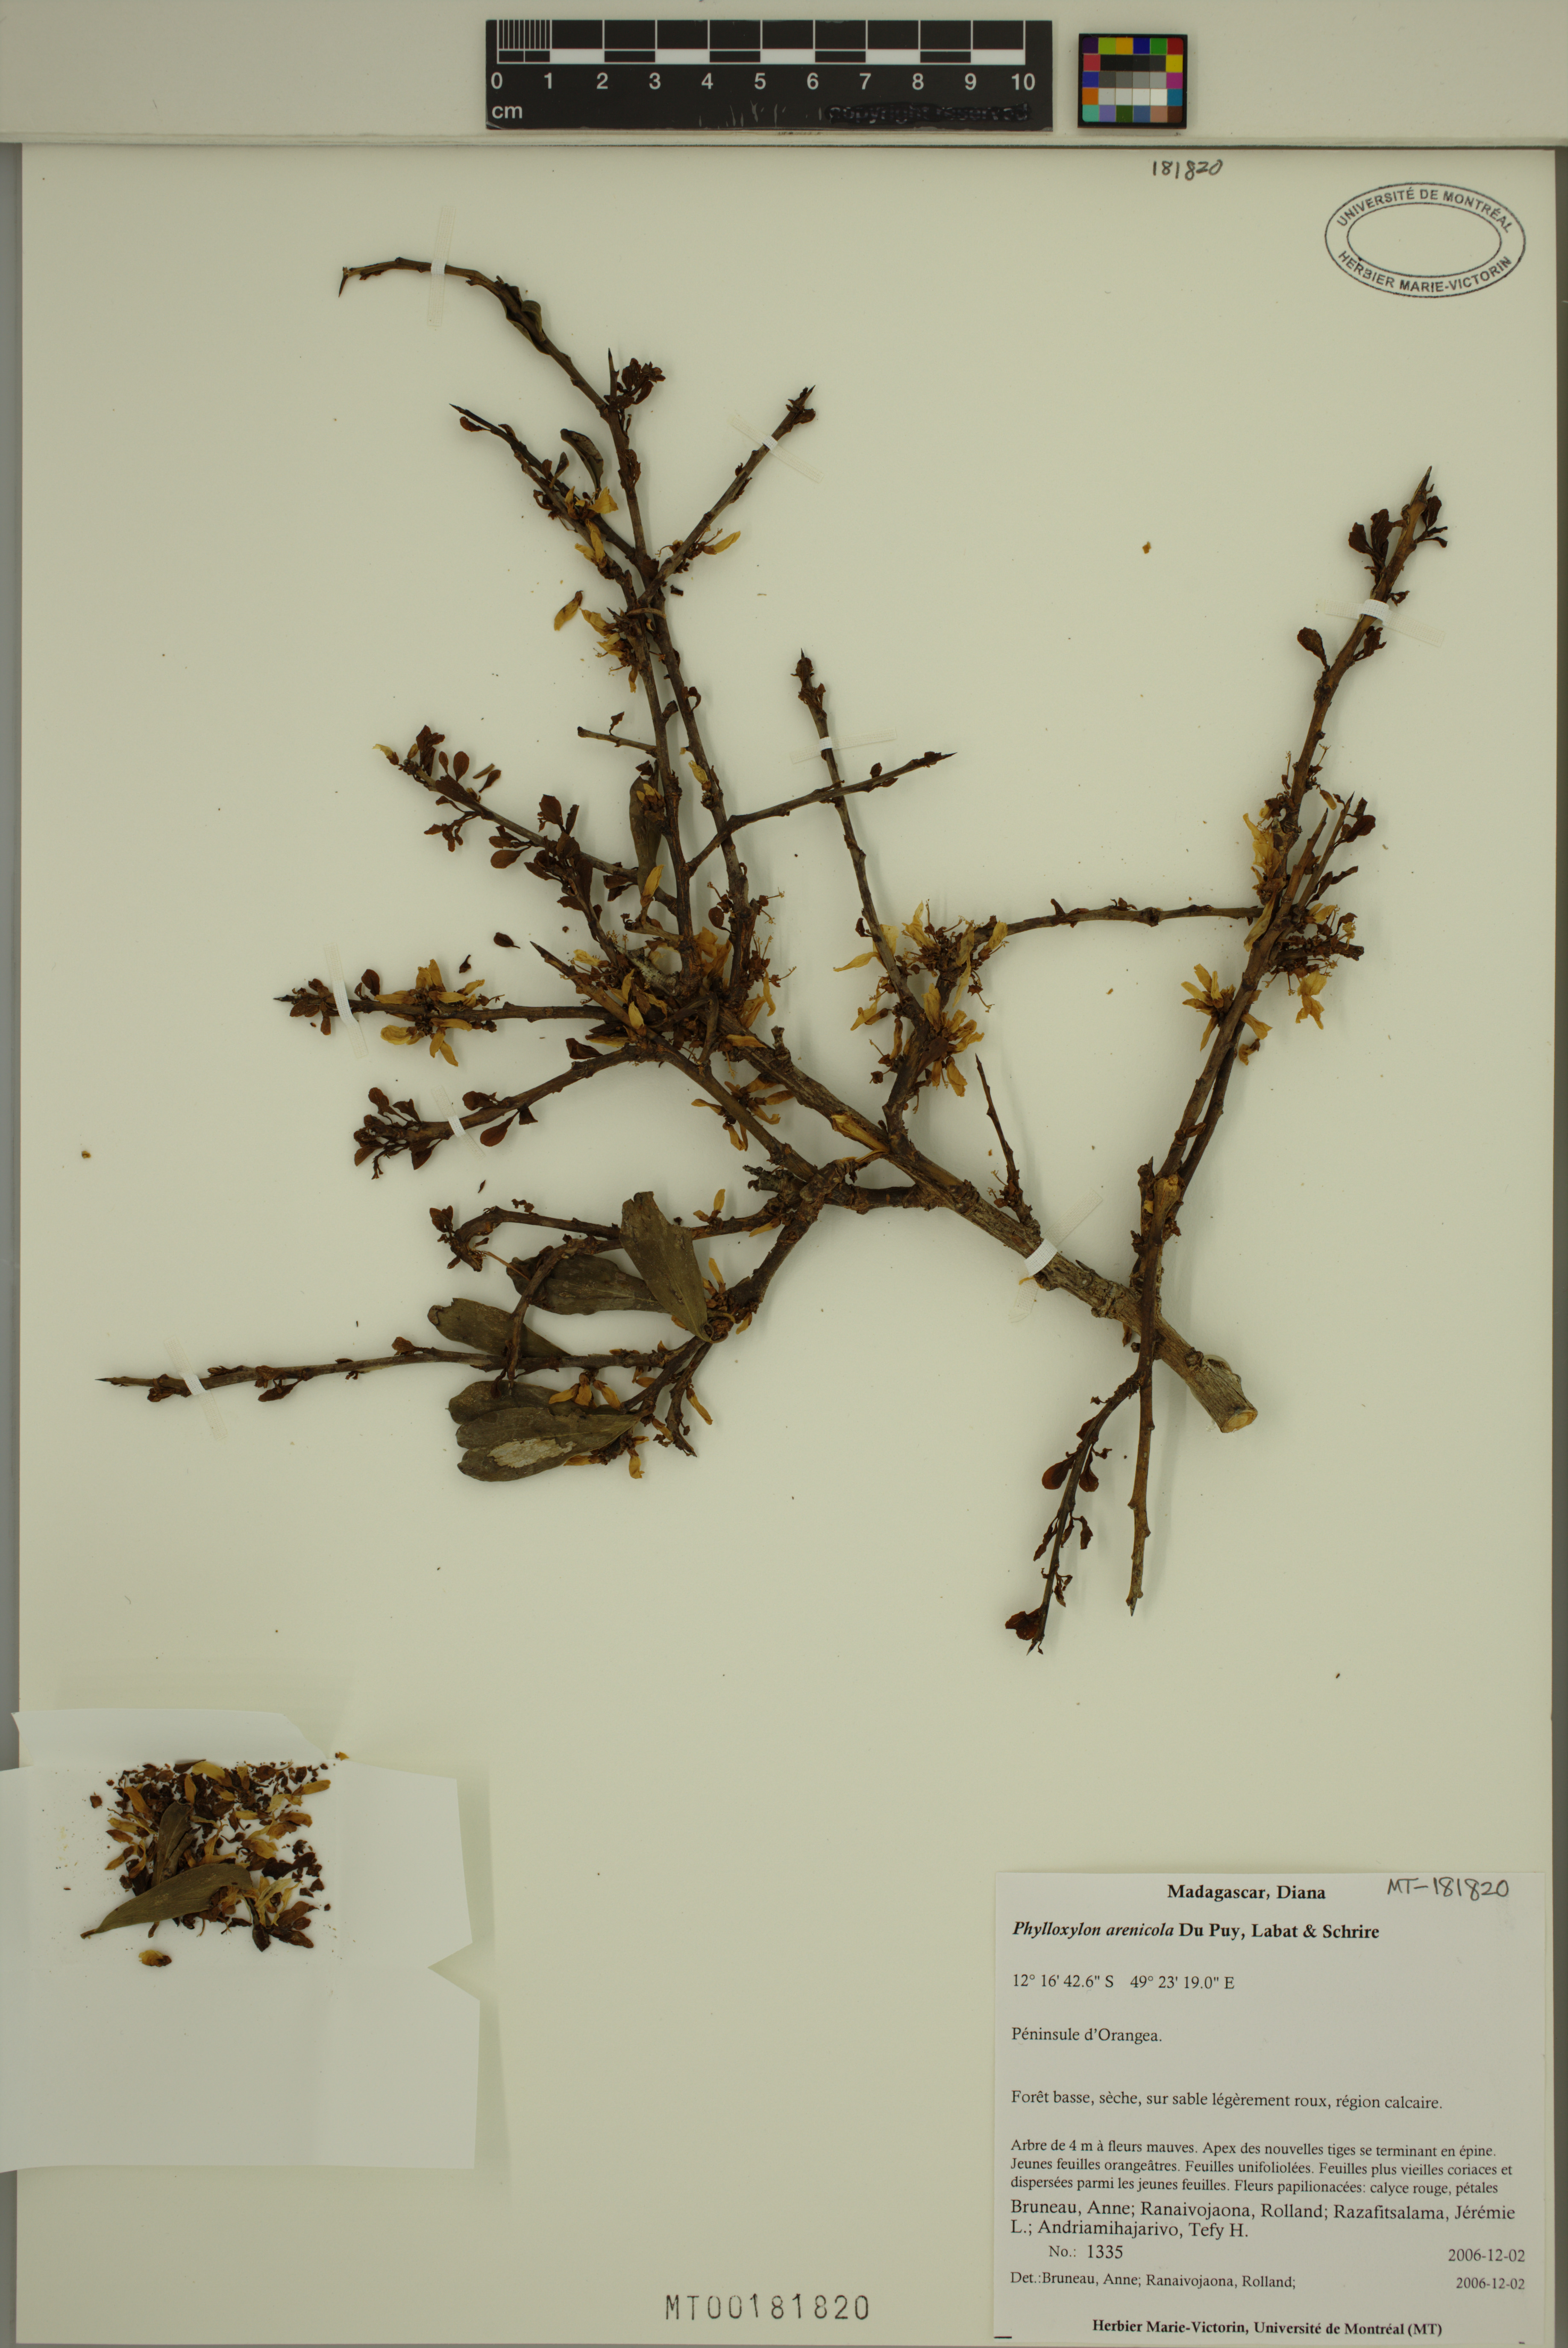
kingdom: Plantae
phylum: Tracheophyta
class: Magnoliopsida
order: Fabales
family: Fabaceae
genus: Phylloxylon
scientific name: Phylloxylon arenicola
